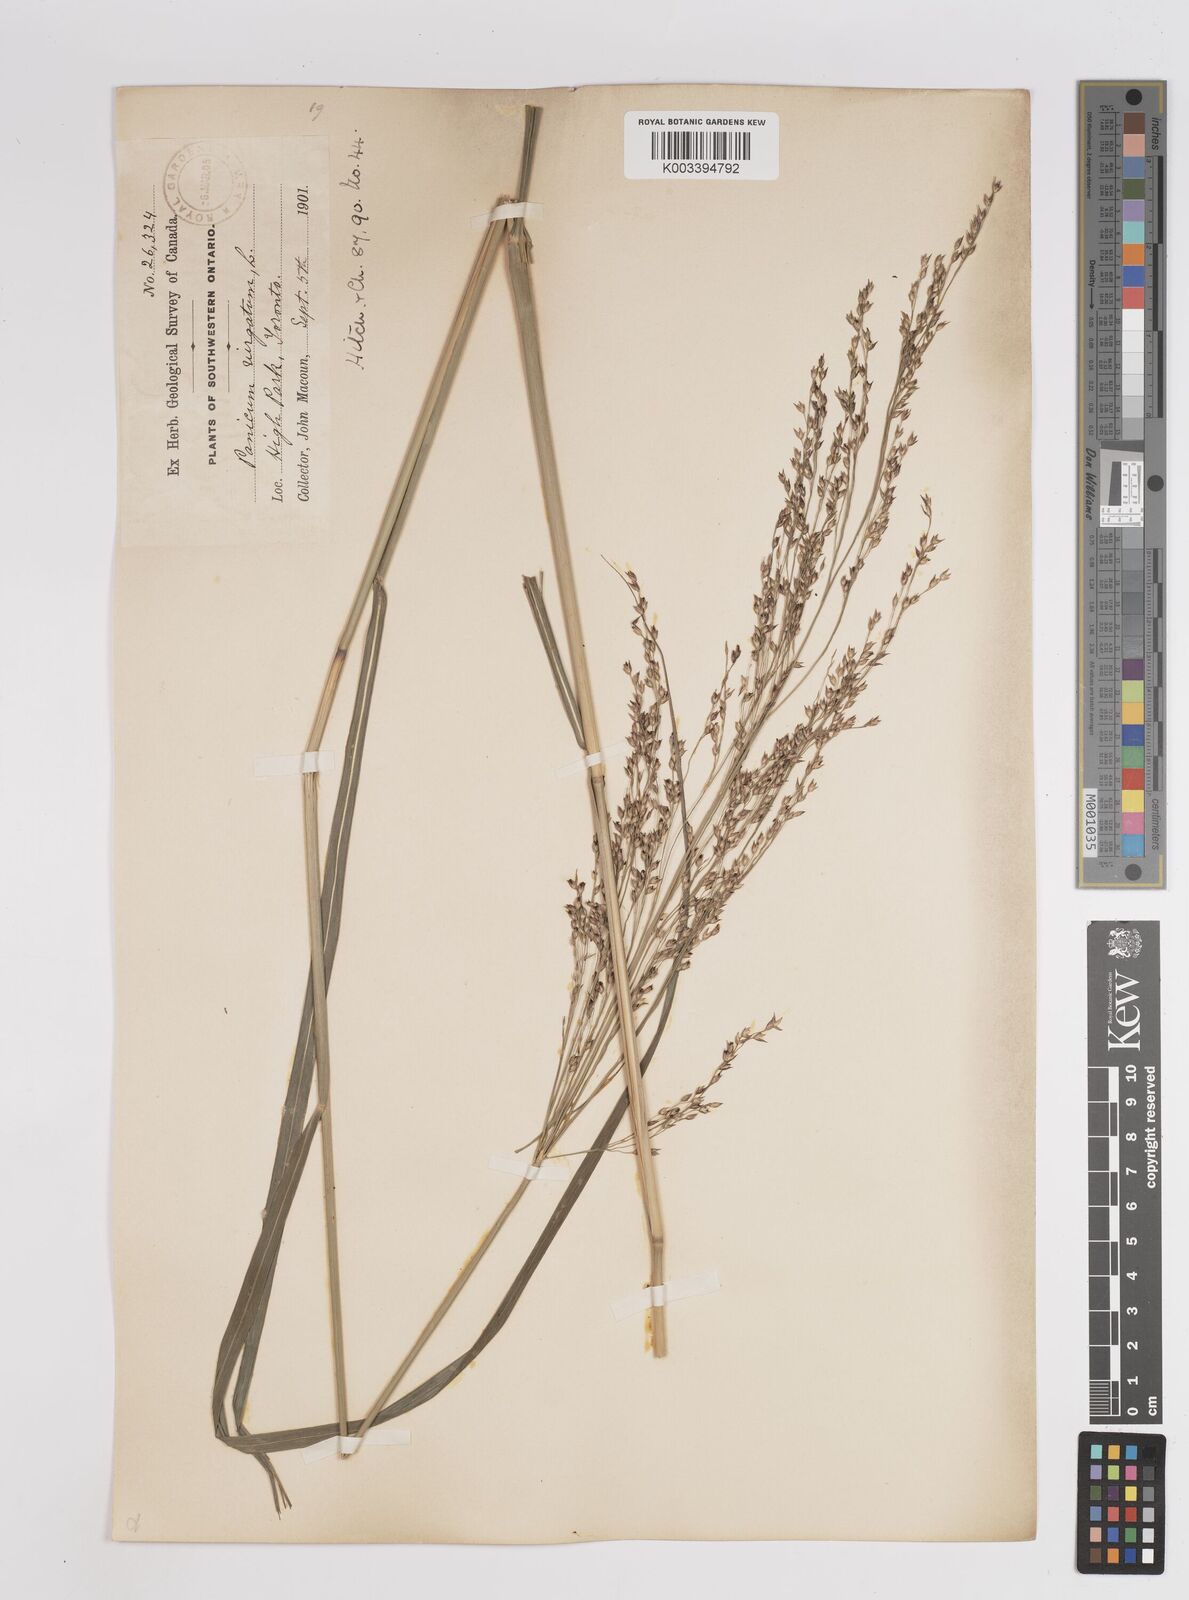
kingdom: Plantae
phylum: Tracheophyta
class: Liliopsida
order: Poales
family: Poaceae
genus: Panicum
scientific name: Panicum virgatum
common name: Switchgrass
